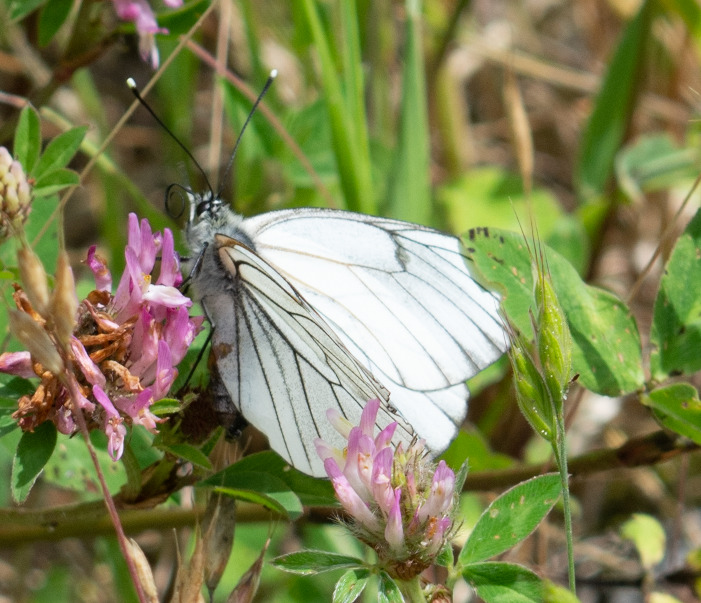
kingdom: Animalia
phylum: Arthropoda
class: Insecta
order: Lepidoptera
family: Pieridae
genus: Aporia
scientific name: Aporia crataegi
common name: Sortåret hvidvinge
